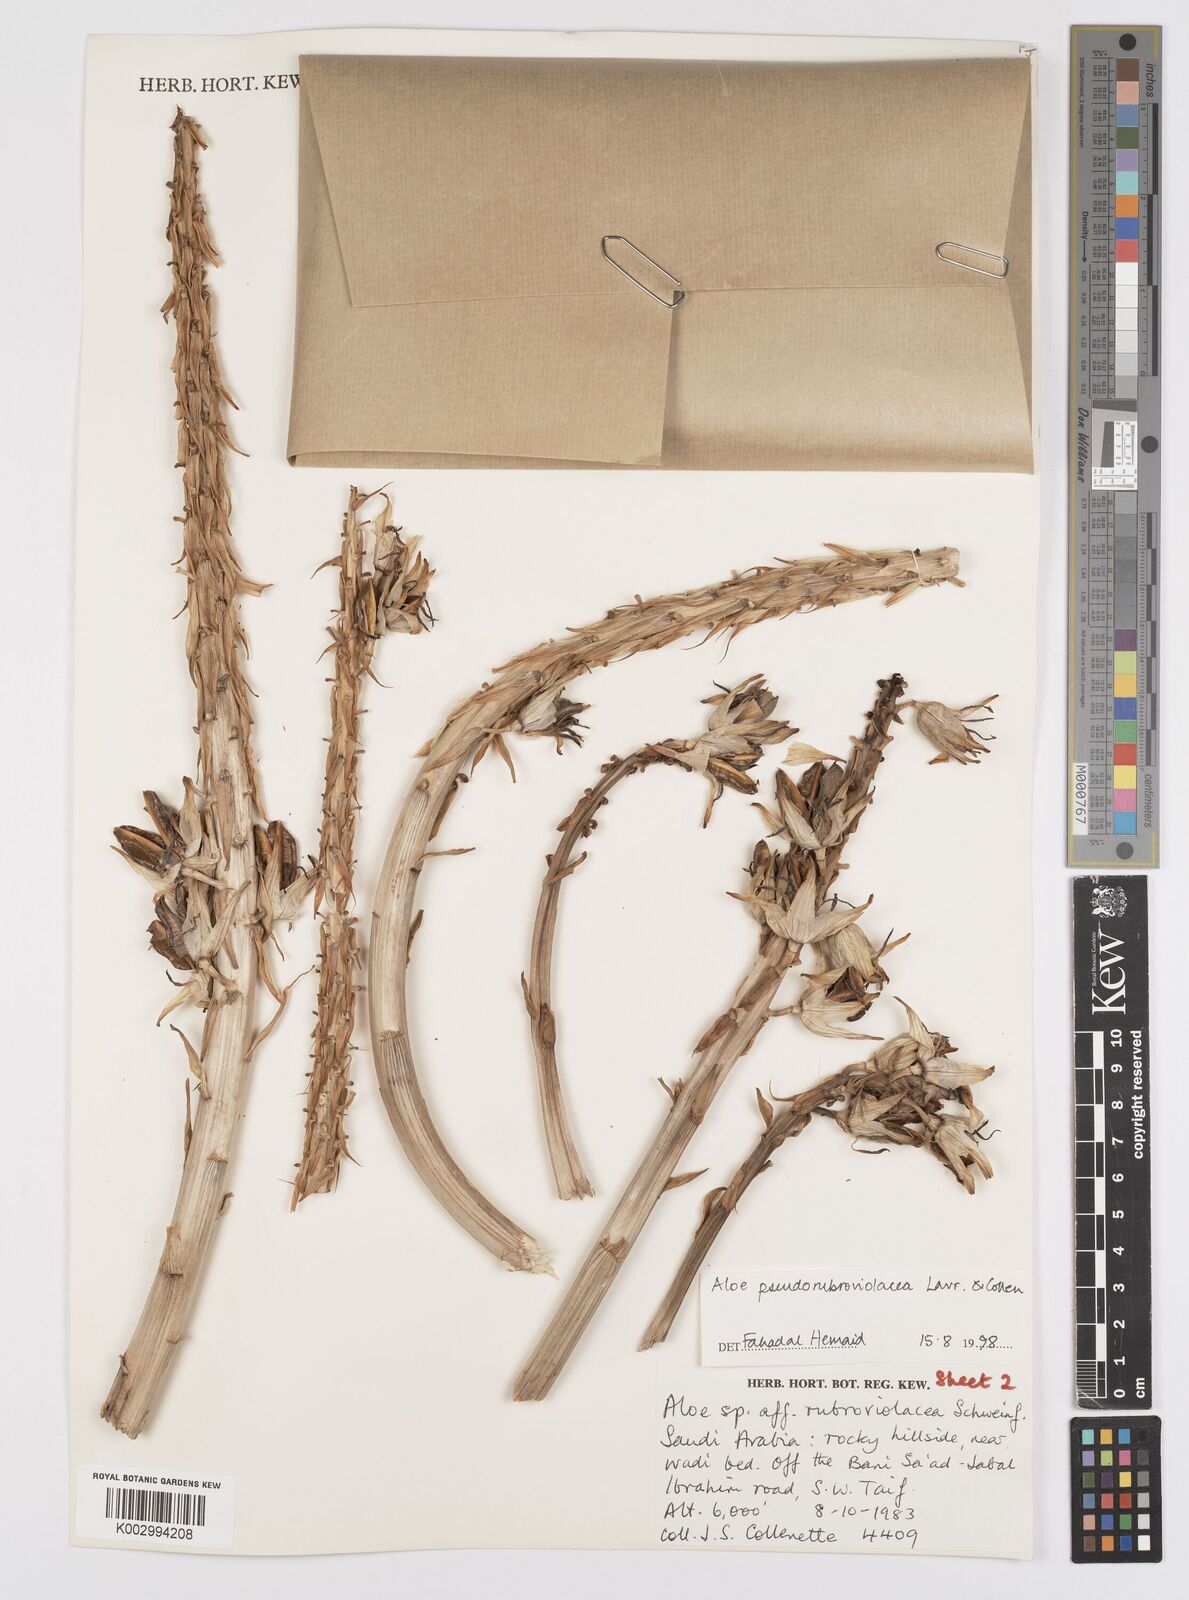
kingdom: Plantae
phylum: Tracheophyta
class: Liliopsida
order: Asparagales
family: Asphodelaceae
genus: Aloe
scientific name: Aloe pseudorubroviolacea
